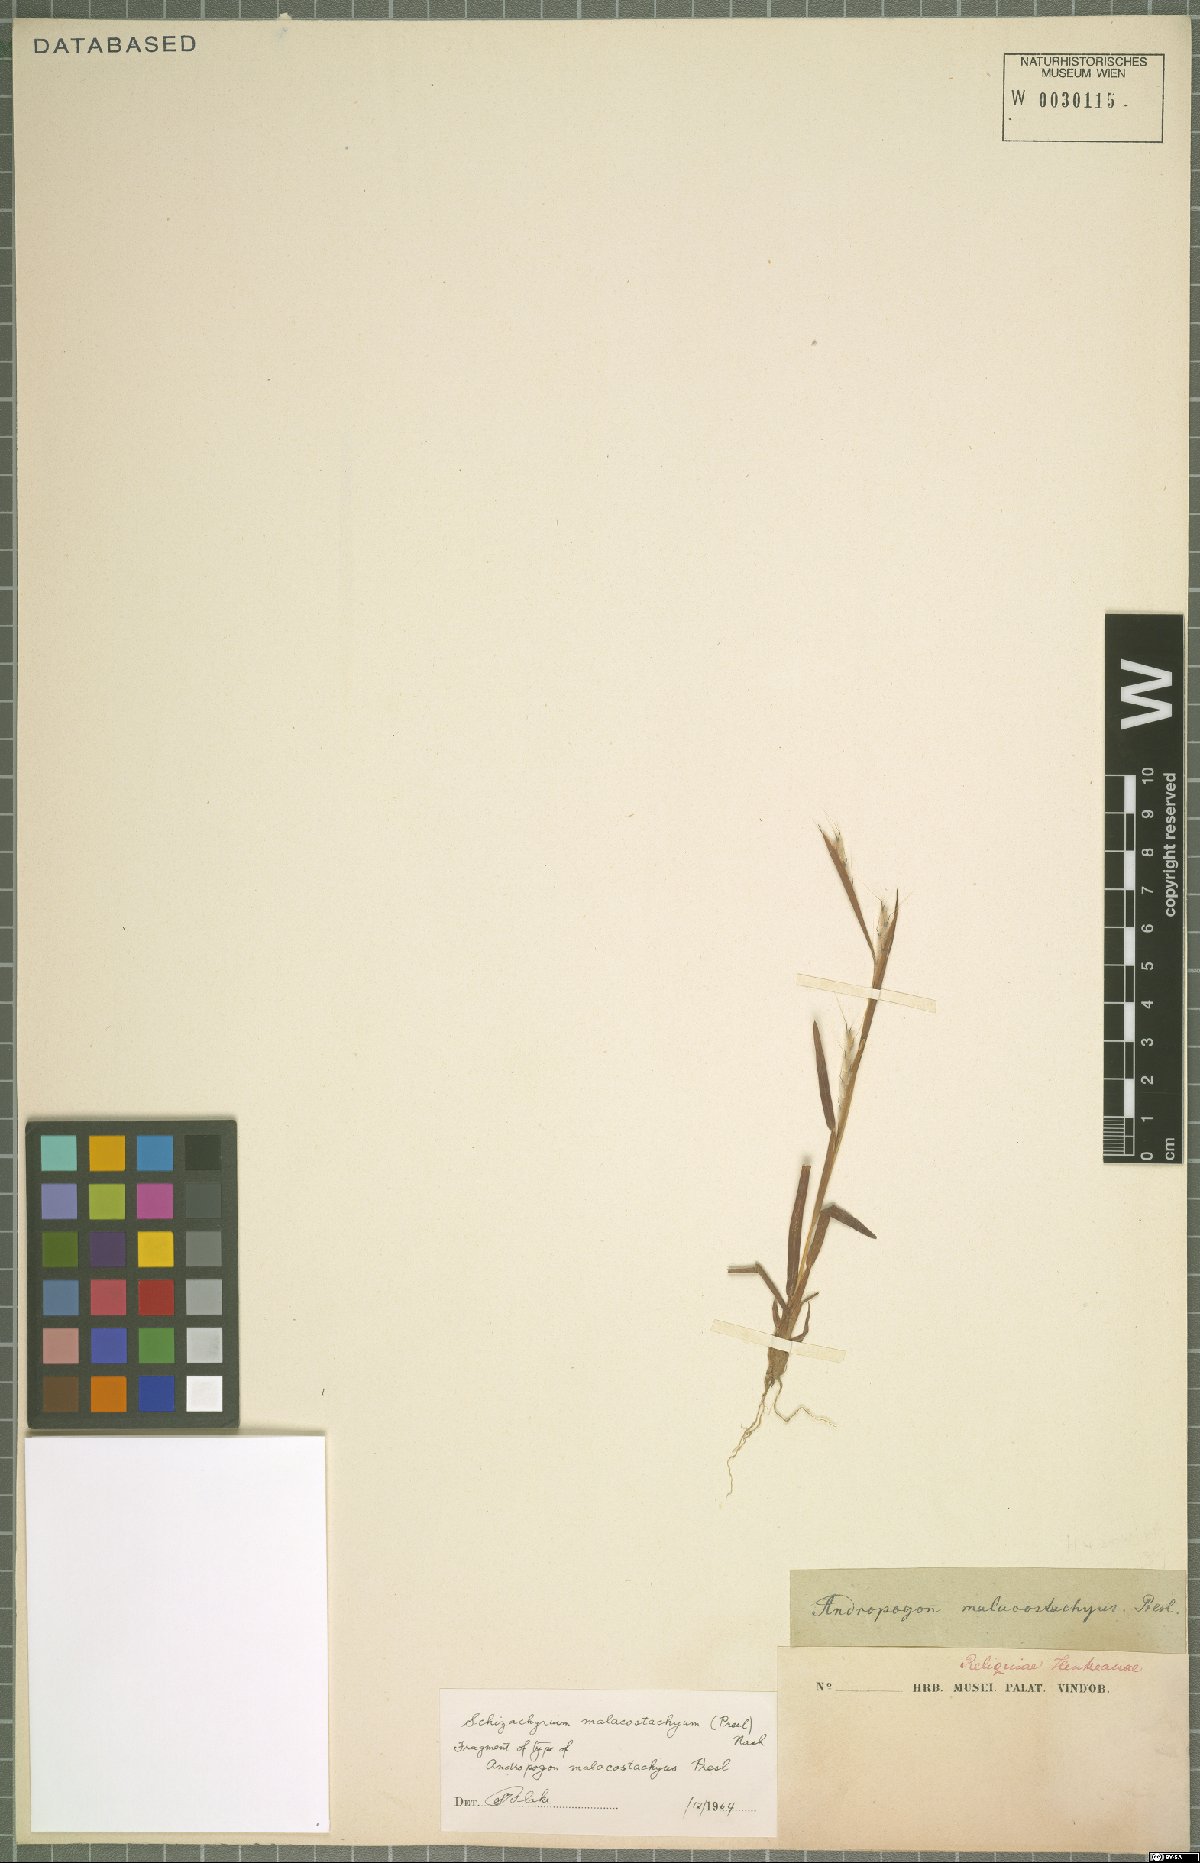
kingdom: Plantae
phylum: Tracheophyta
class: Liliopsida
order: Poales
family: Poaceae
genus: Schizachyrium
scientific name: Schizachyrium malacostachyum
